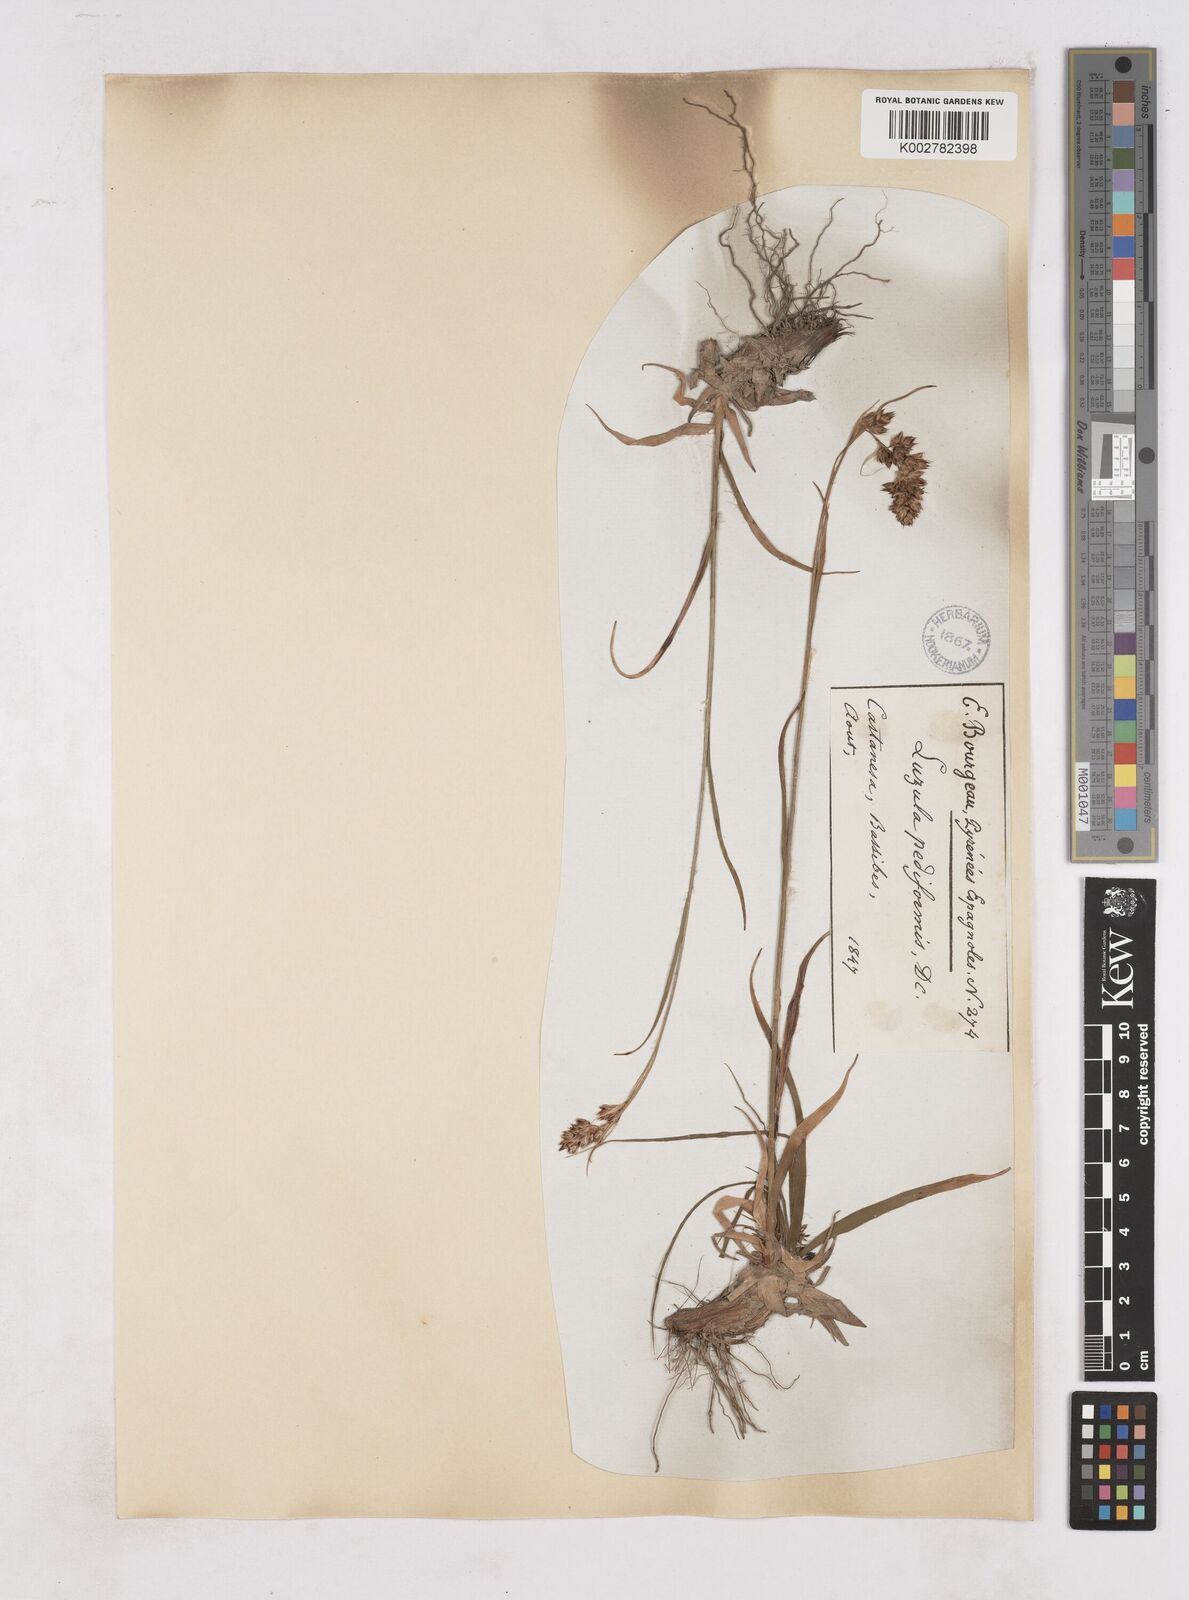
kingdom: Plantae
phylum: Tracheophyta
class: Liliopsida
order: Poales
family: Juncaceae
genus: Luzula
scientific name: Luzula pediformis
